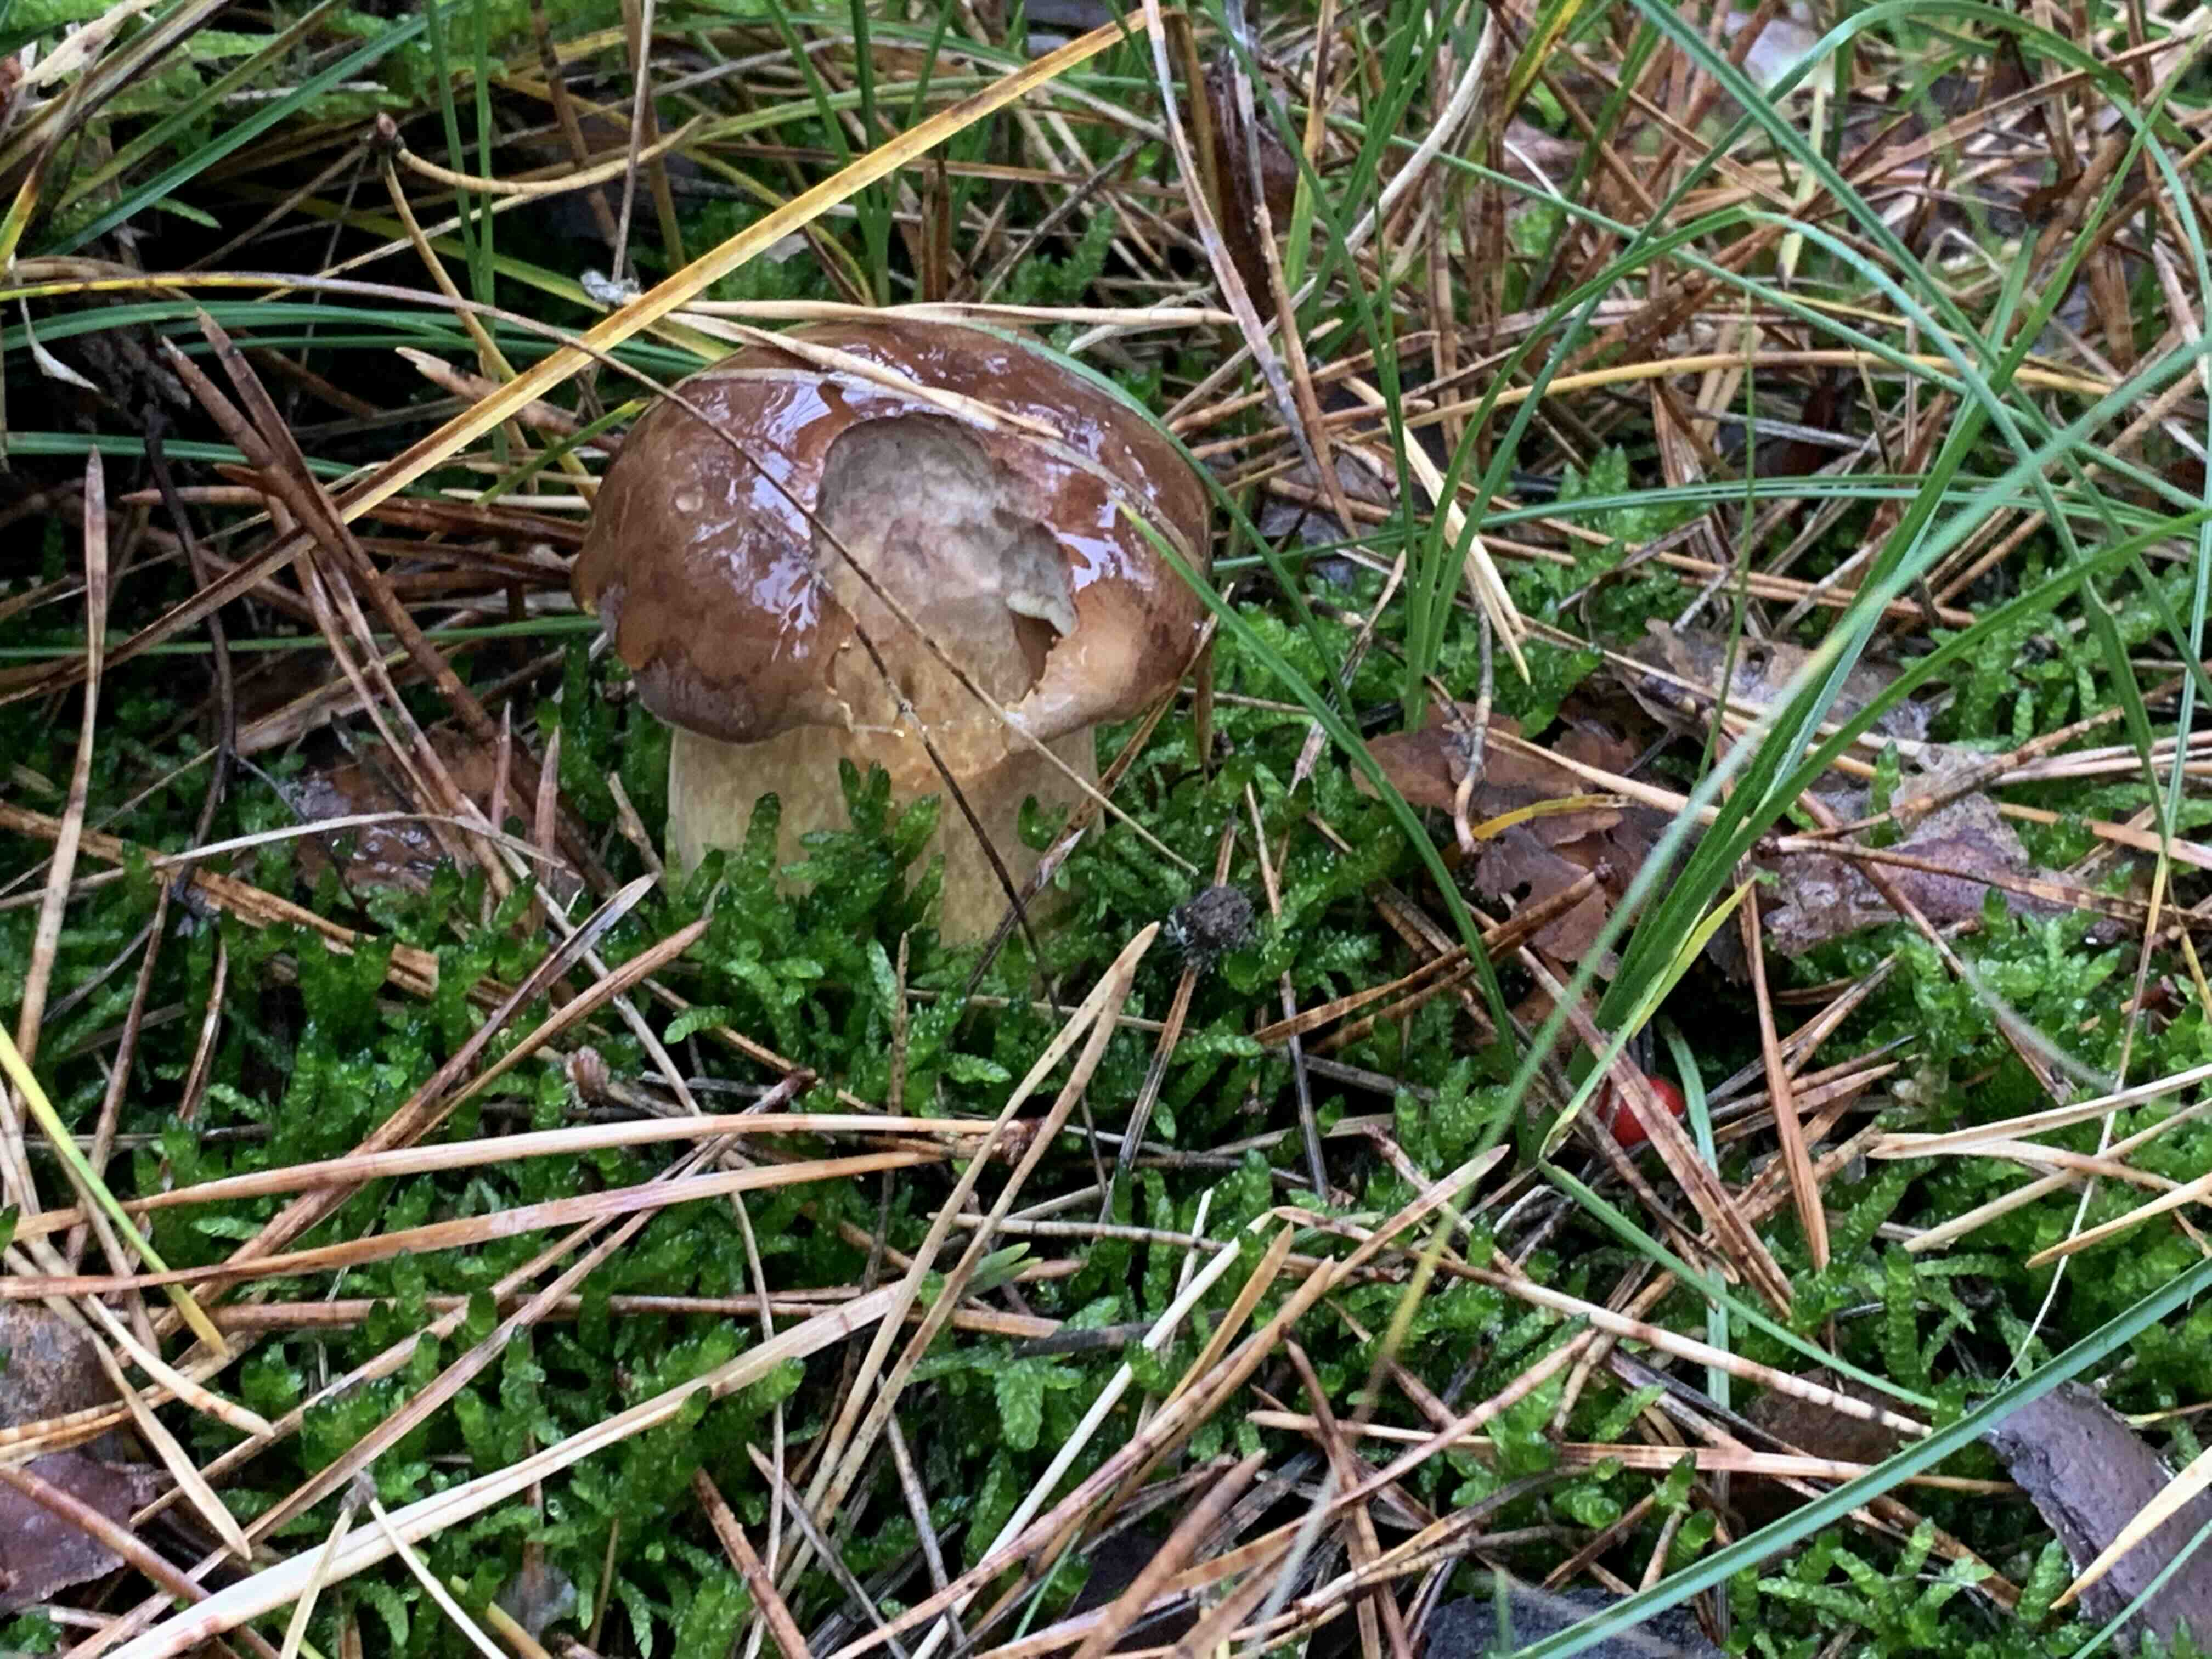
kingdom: Fungi
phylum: Basidiomycota
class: Agaricomycetes
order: Boletales
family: Boletaceae
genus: Imleria
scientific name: Imleria badia
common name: brunstokket rørhat
